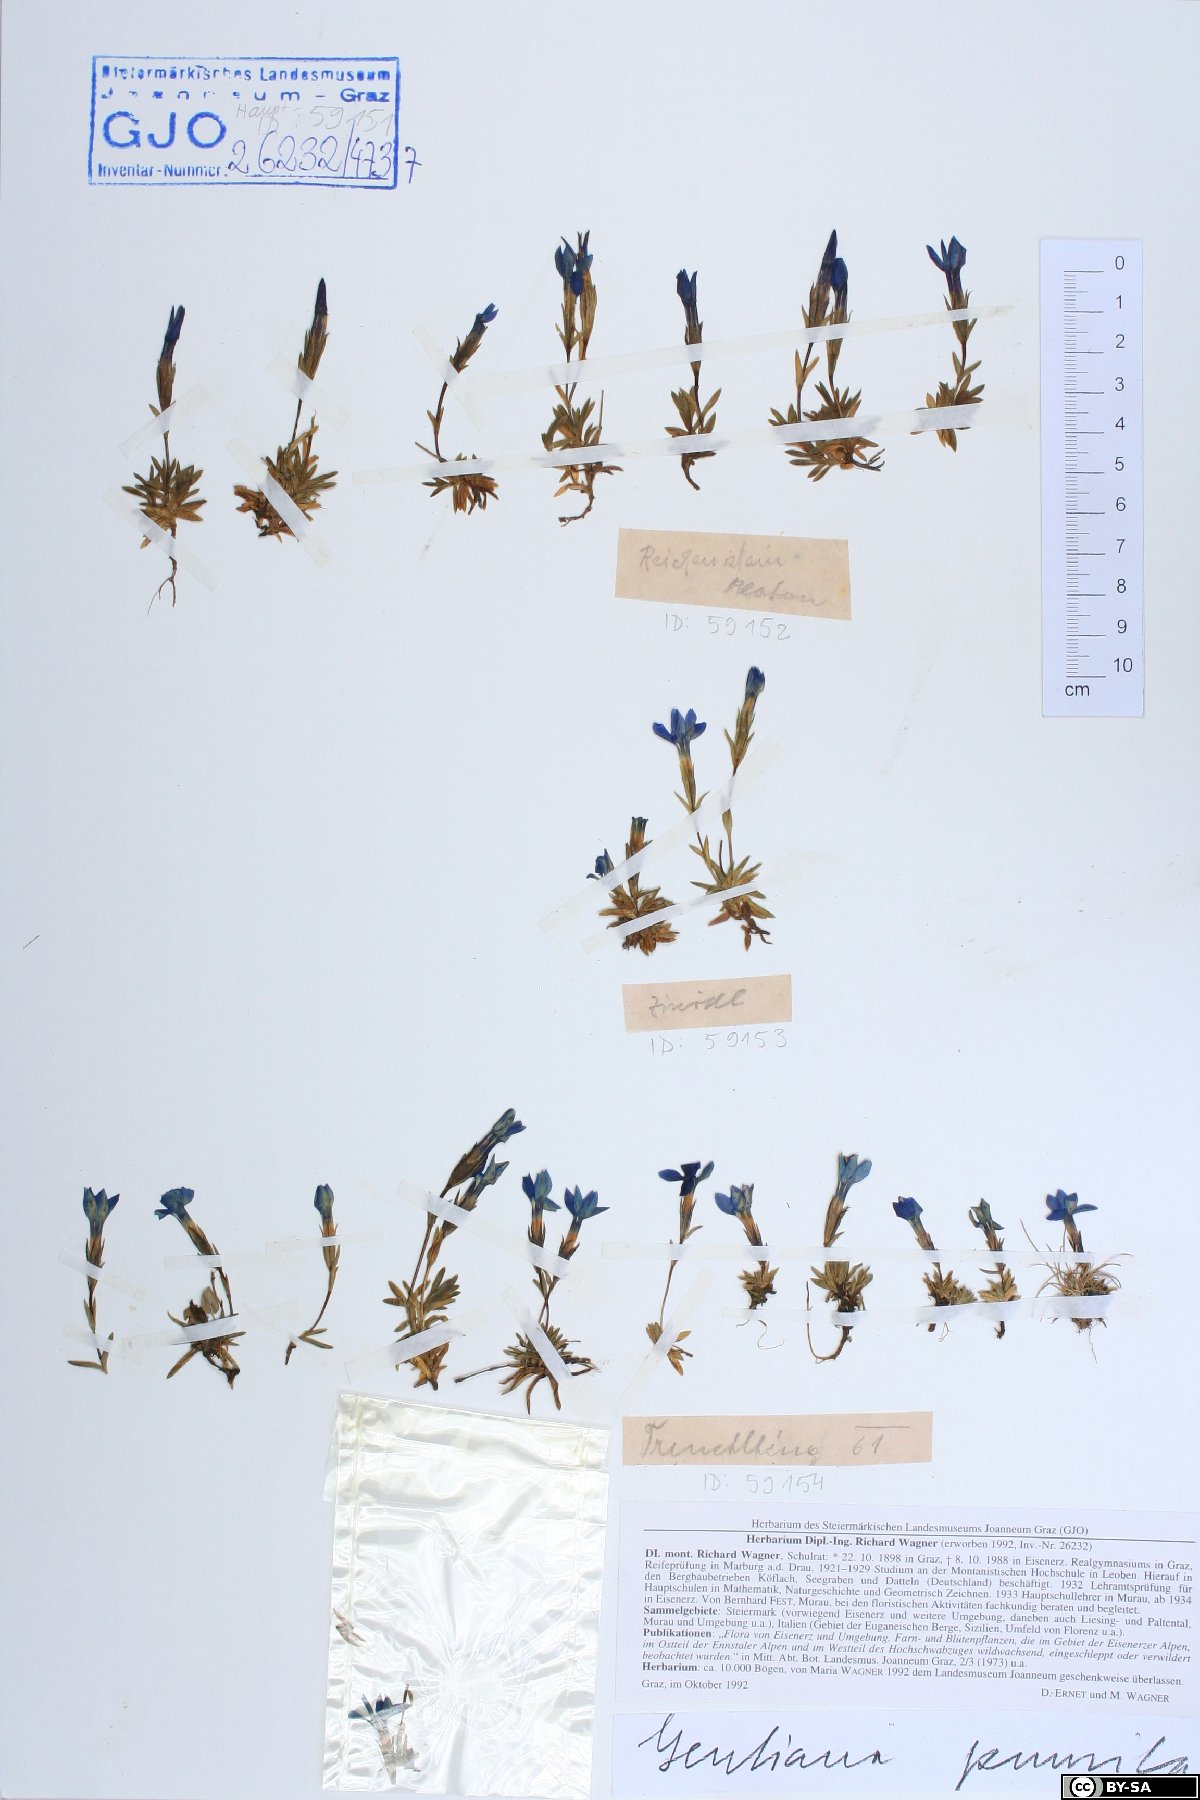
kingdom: Plantae
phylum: Tracheophyta
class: Magnoliopsida
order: Gentianales
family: Gentianaceae
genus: Gentiana
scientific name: Gentiana pumila
